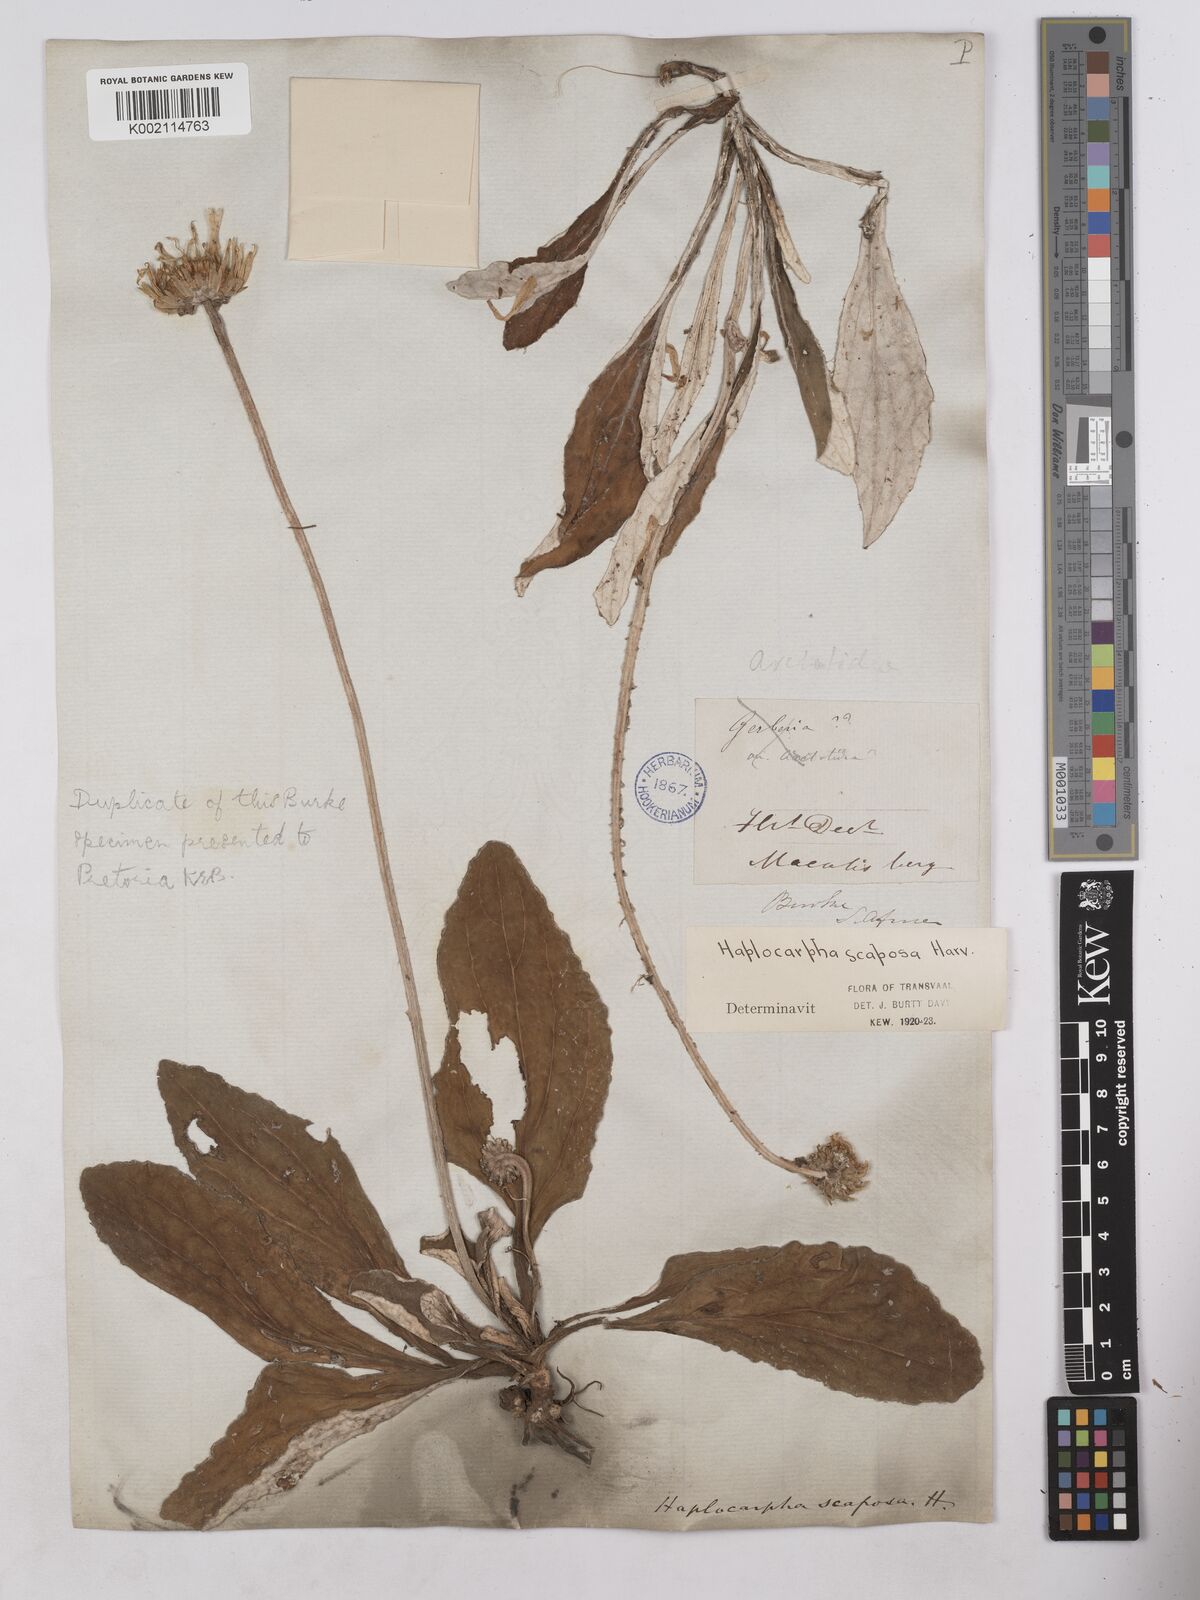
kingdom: Plantae
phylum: Tracheophyta
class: Magnoliopsida
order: Asterales
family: Asteraceae
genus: Haplocarpha
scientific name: Haplocarpha scaposa
